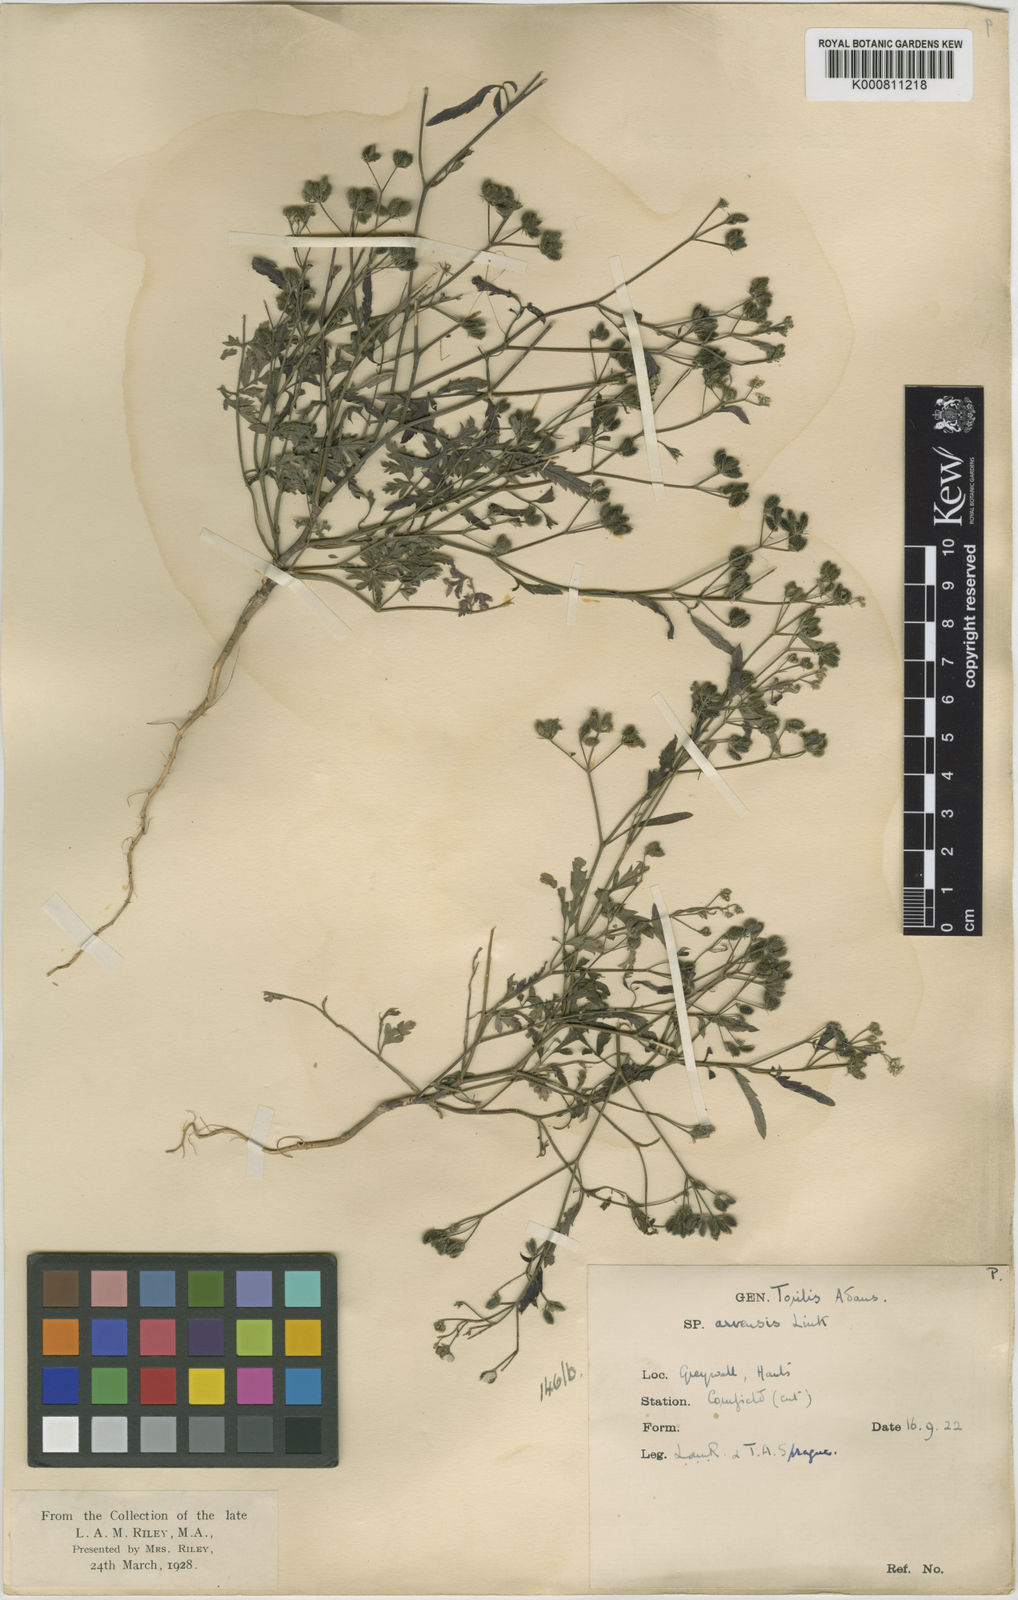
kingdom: Plantae
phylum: Tracheophyta
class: Magnoliopsida
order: Apiales
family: Apiaceae
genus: Torilis
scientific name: Torilis arvensis
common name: Spreading hedge-parsley
